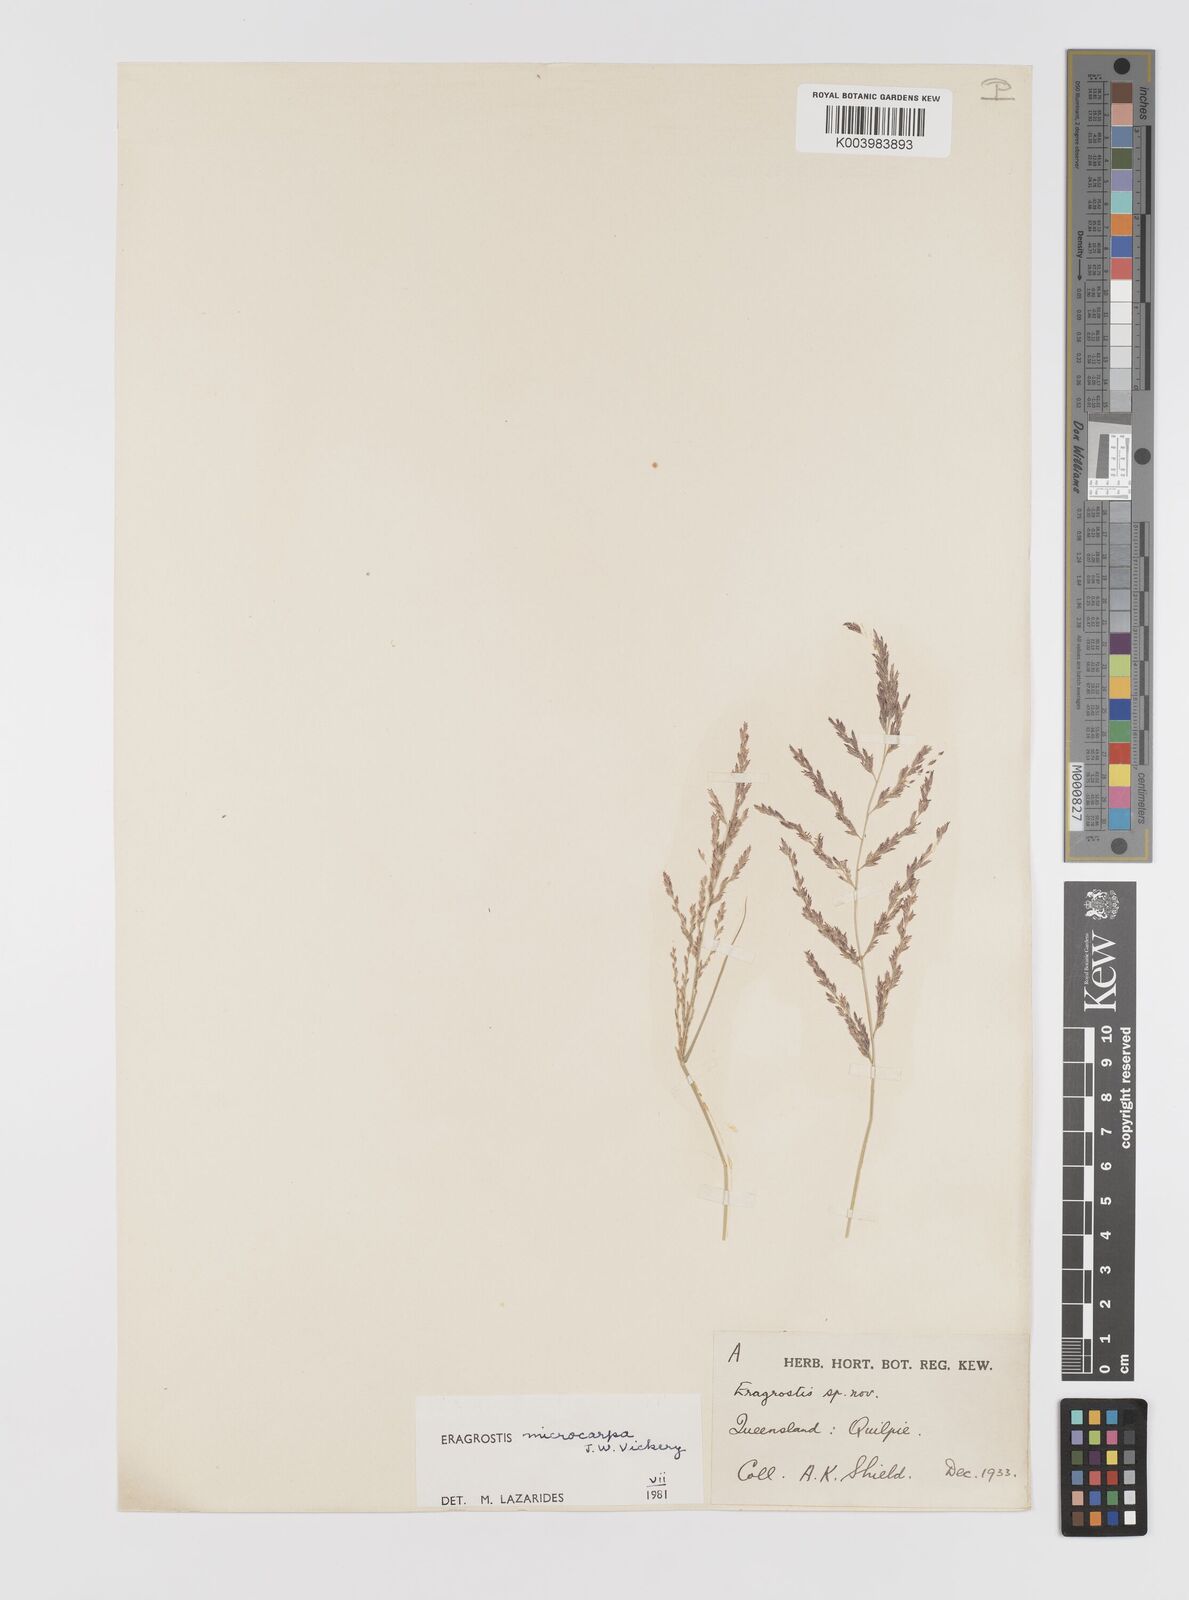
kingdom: Plantae
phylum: Tracheophyta
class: Liliopsida
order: Poales
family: Poaceae
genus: Eragrostis
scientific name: Eragrostis microcarpa
